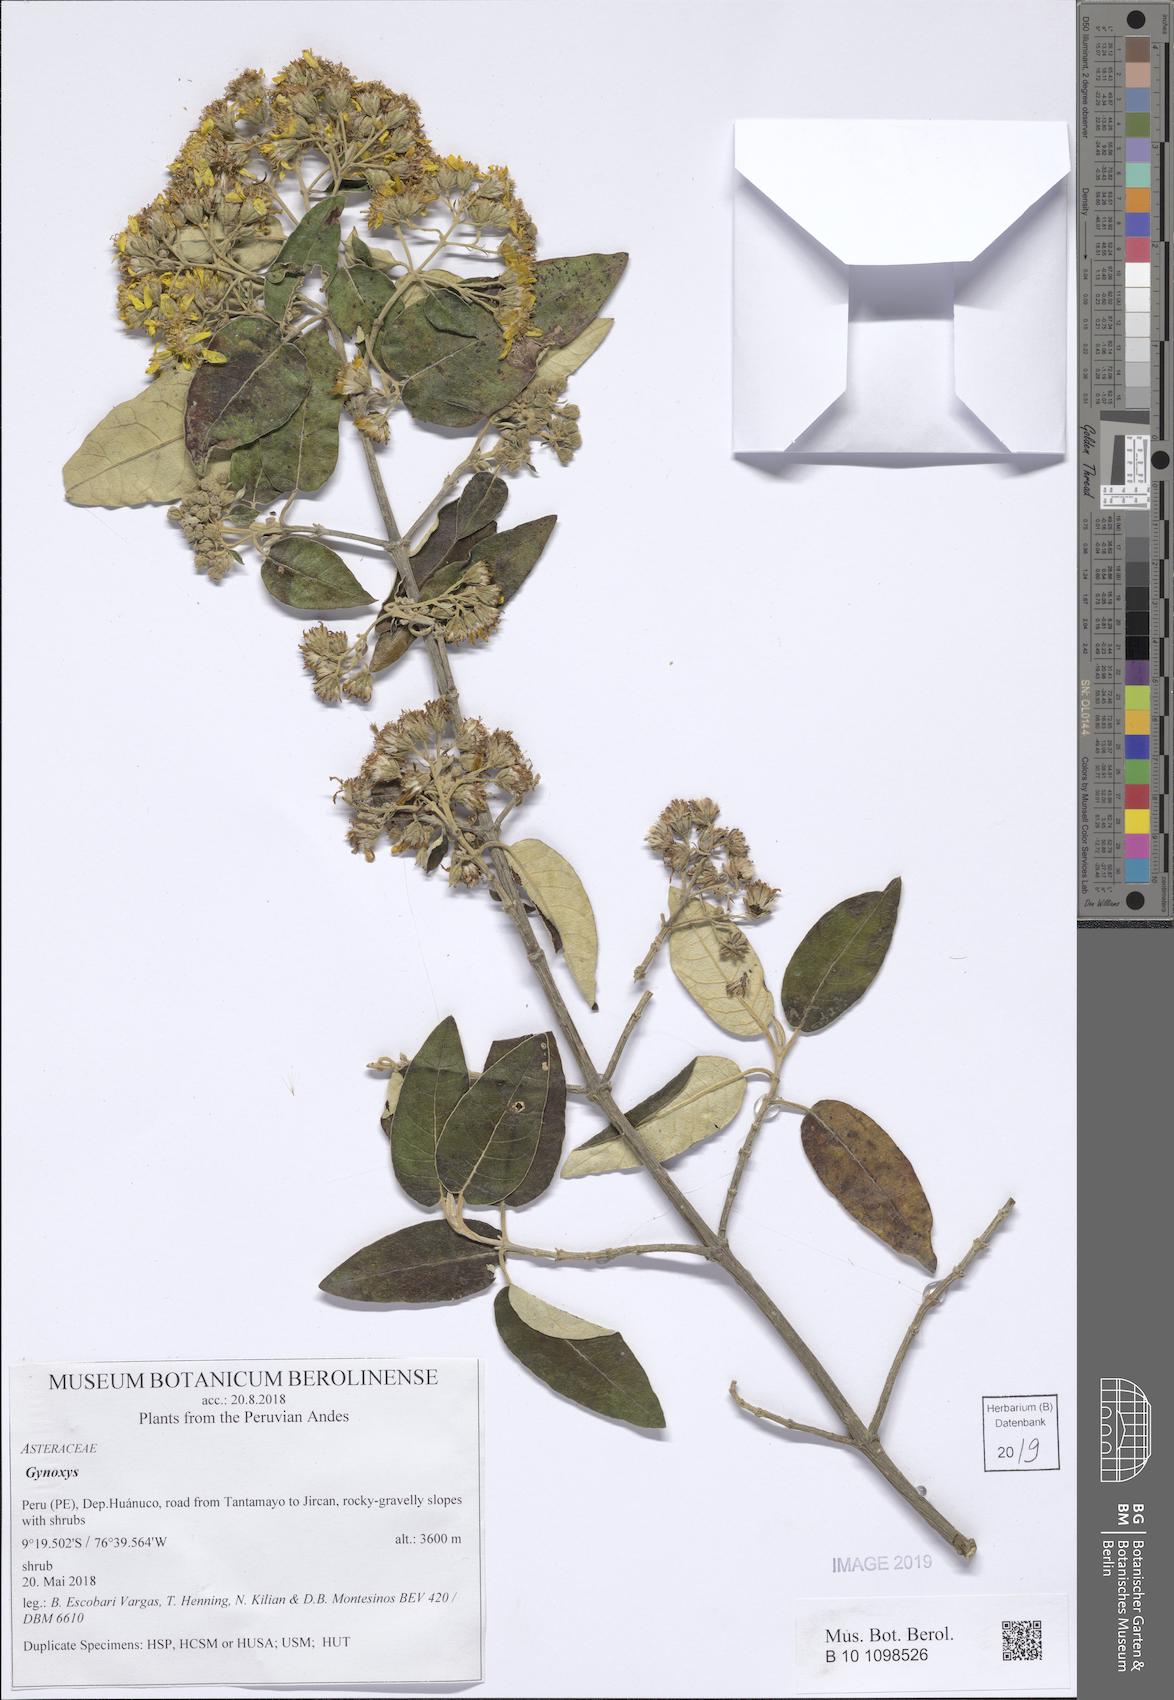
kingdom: Plantae
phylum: Tracheophyta
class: Magnoliopsida
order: Asterales
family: Asteraceae
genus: Gynoxys
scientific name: Gynoxys
